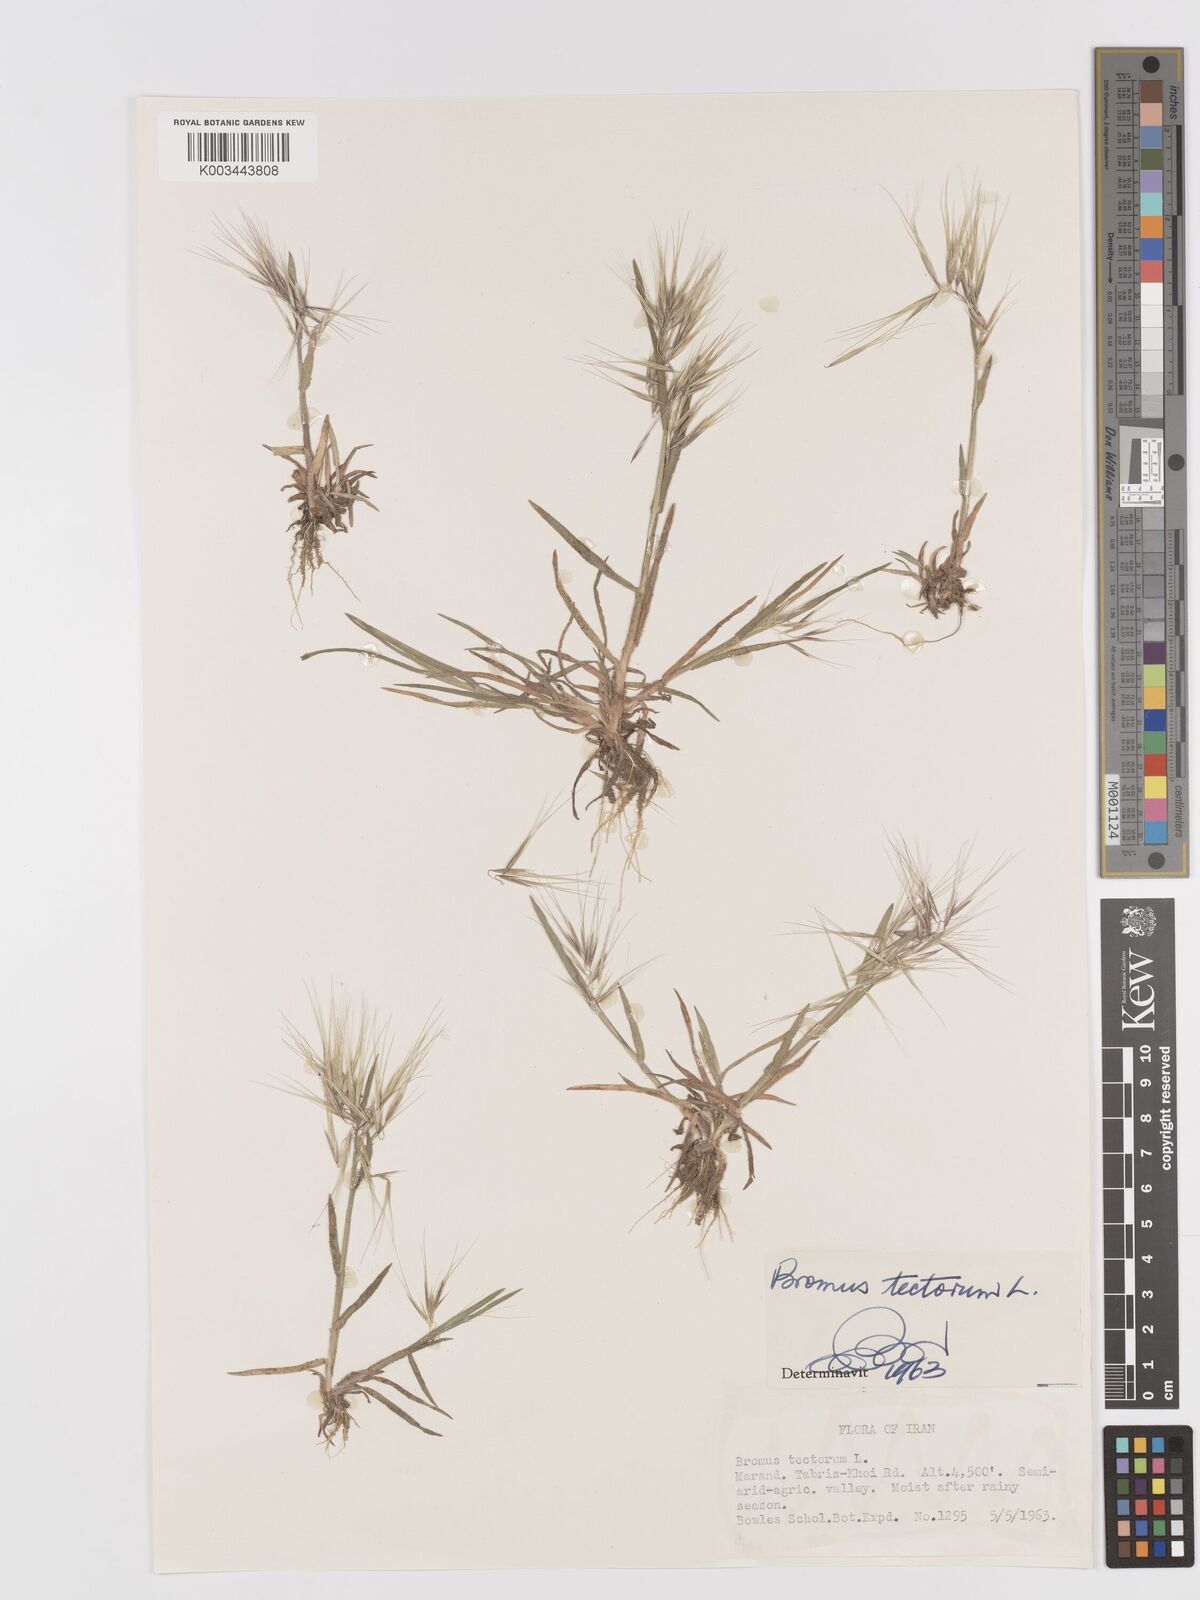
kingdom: Plantae
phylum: Tracheophyta
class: Liliopsida
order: Poales
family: Poaceae
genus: Bromus
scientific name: Bromus tectorum
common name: Cheatgrass
